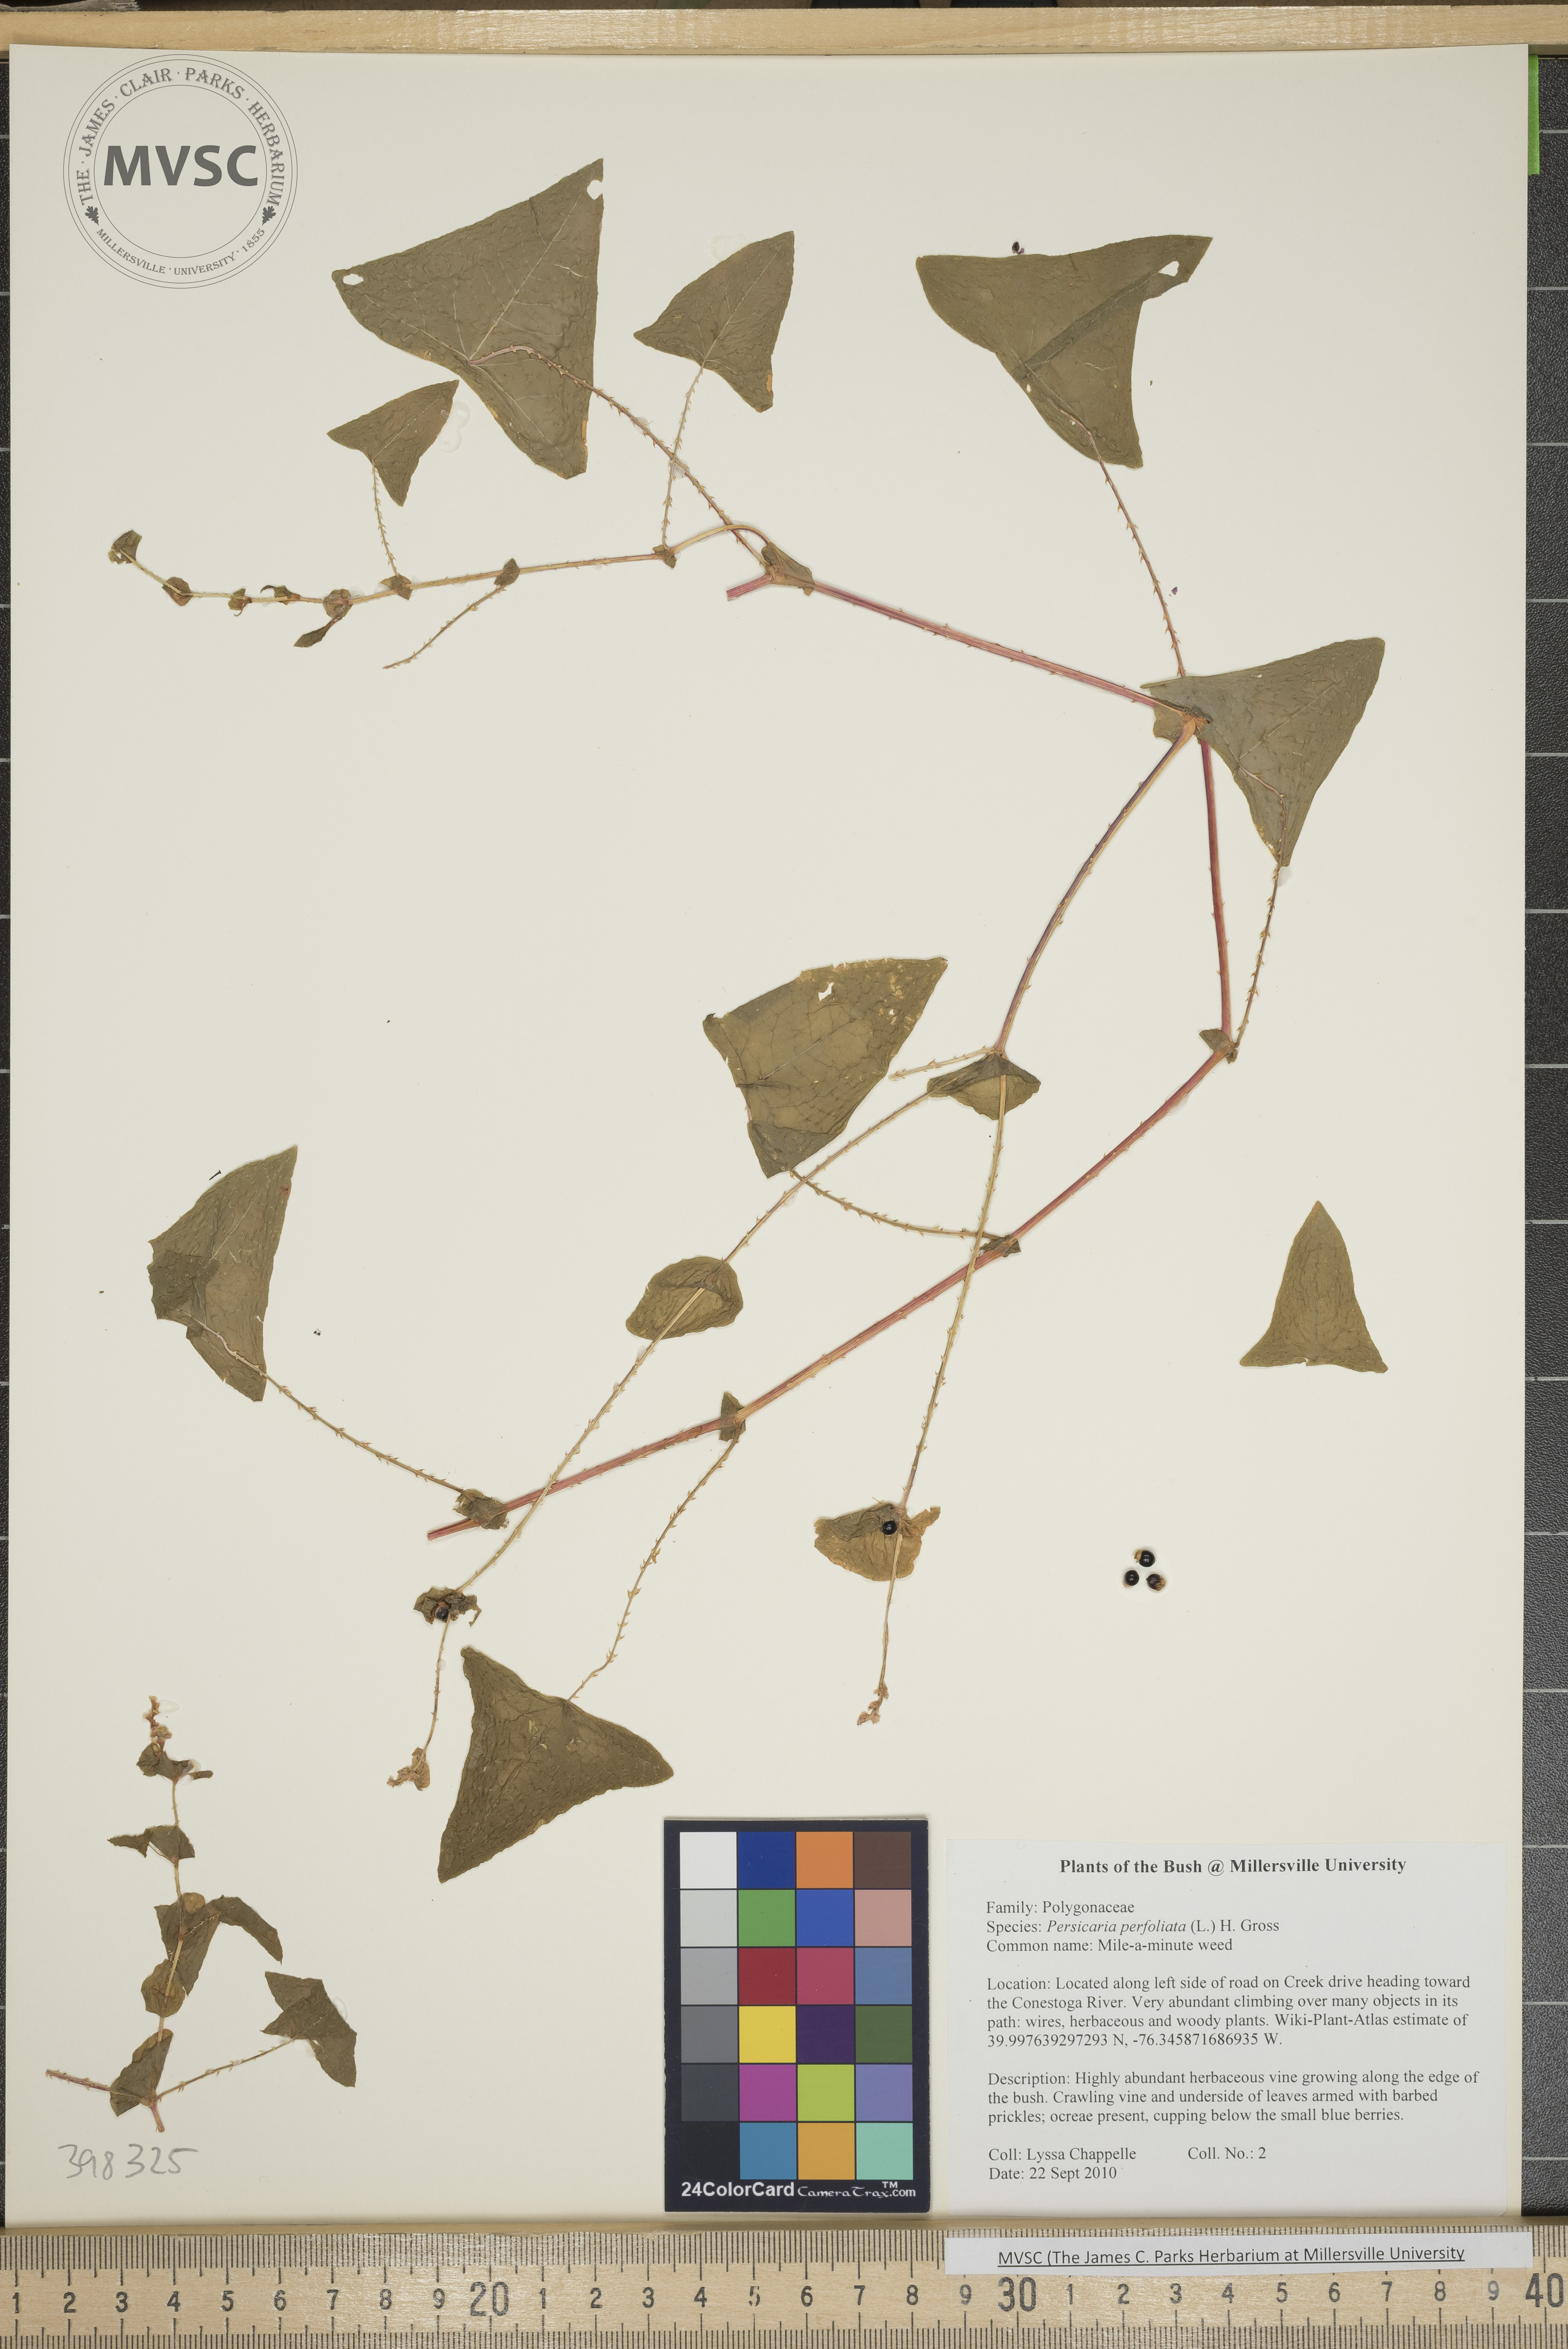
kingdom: Plantae
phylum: Tracheophyta
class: Magnoliopsida
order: Caryophyllales
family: Polygonaceae
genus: Persicaria
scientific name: Persicaria perfoliata
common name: Mile-a-minute weed
